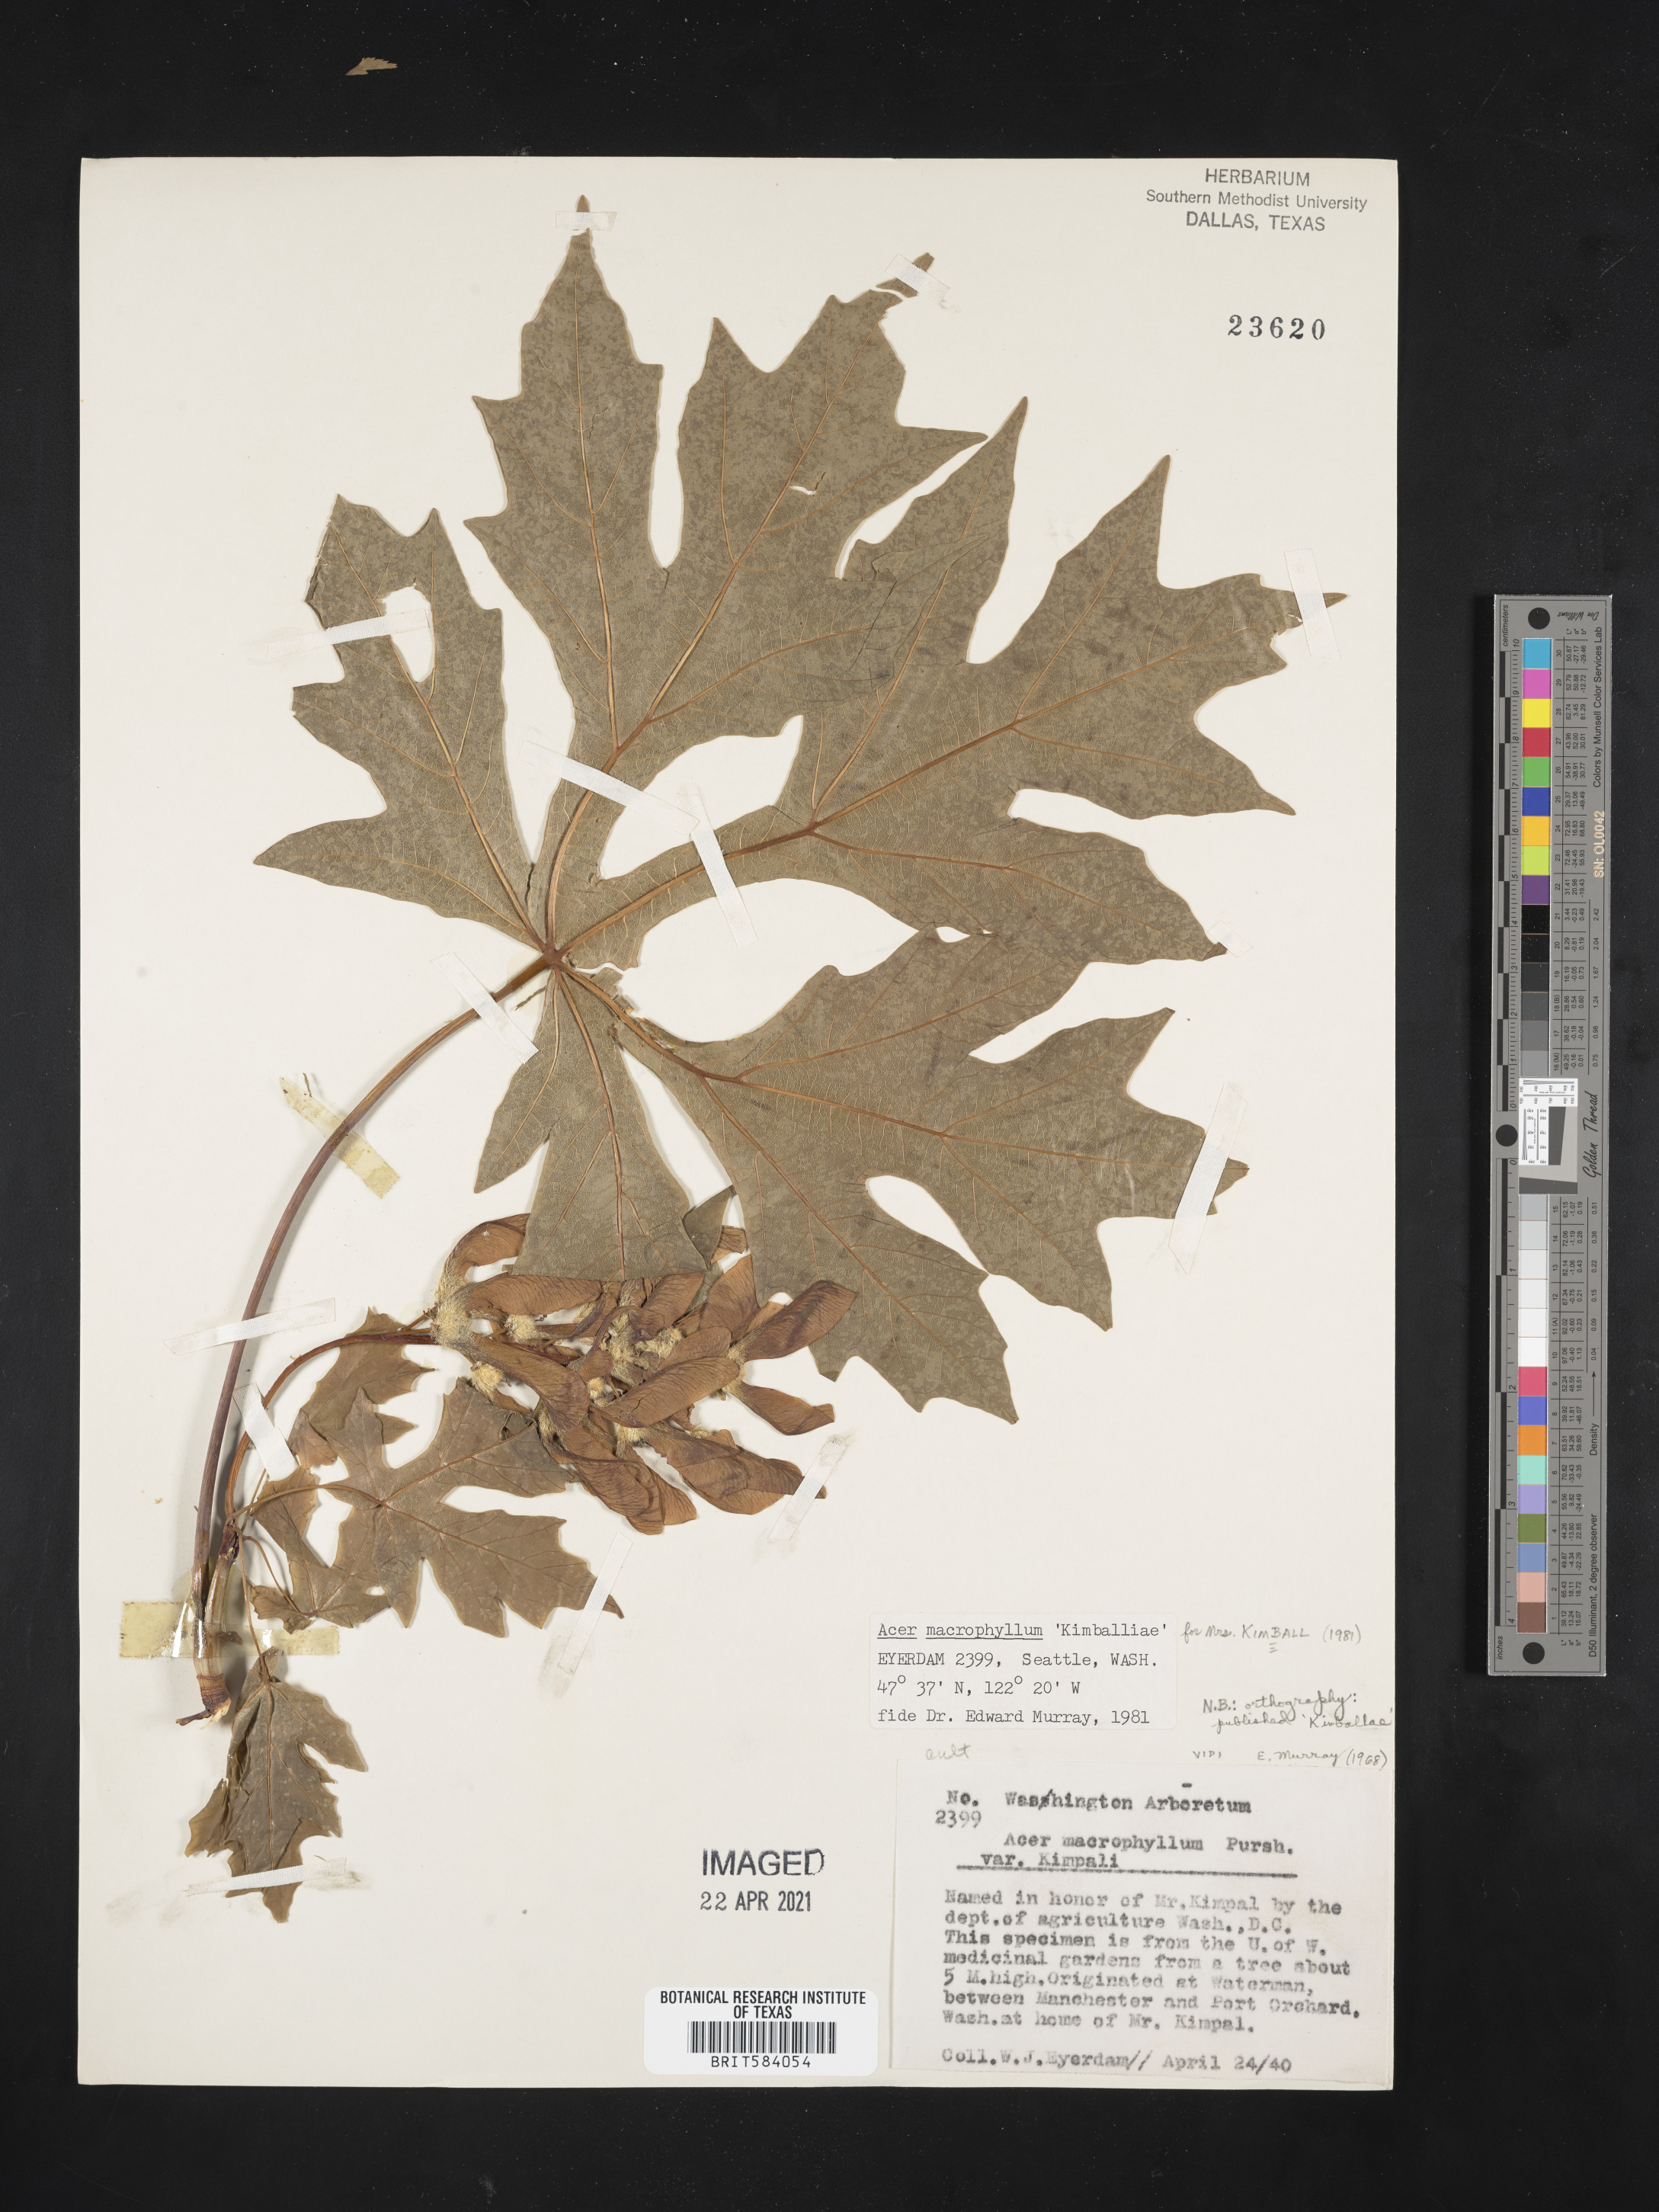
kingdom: Plantae
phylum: Tracheophyta
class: Magnoliopsida
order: Sapindales
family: Sapindaceae
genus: Acer
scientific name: Acer macrophyllum
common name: Oregon maple
